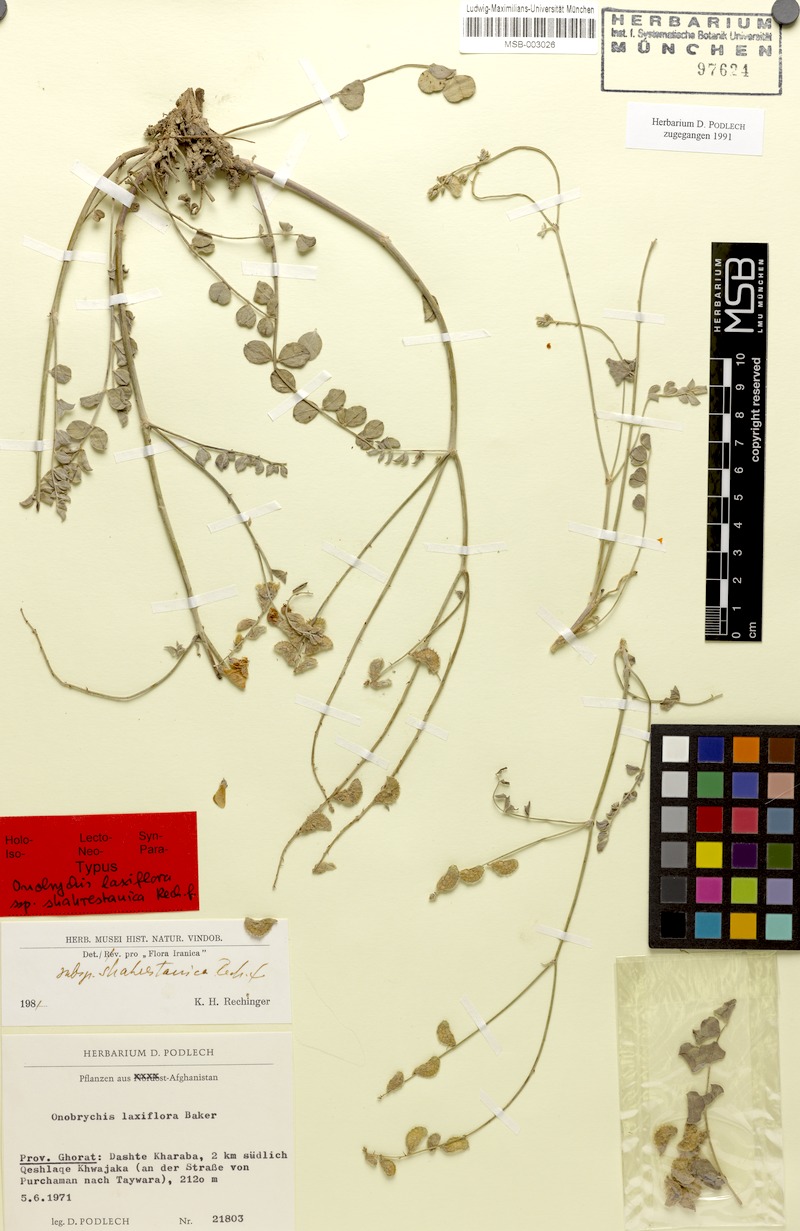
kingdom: Plantae
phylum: Tracheophyta
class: Magnoliopsida
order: Fabales
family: Fabaceae
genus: Onobrychis
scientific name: Onobrychis laxiflora
